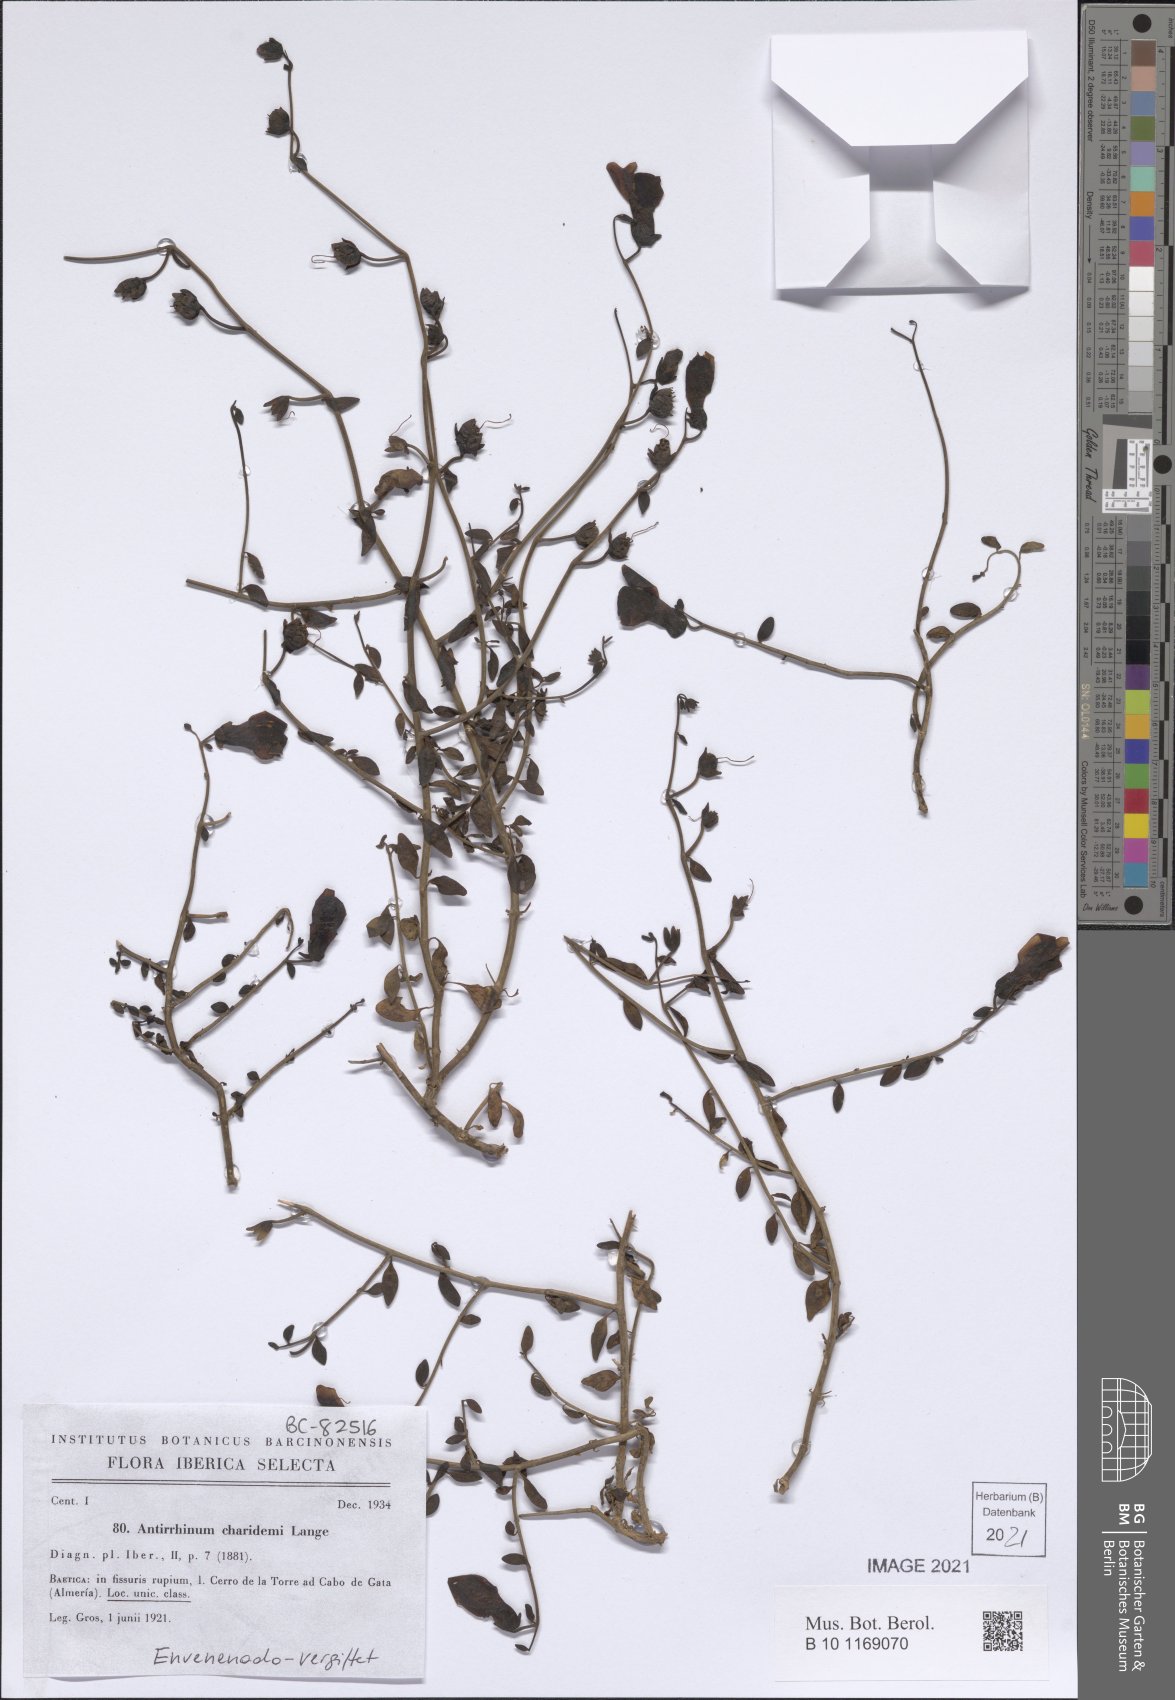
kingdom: Plantae
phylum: Tracheophyta
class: Magnoliopsida
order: Lamiales
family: Plantaginaceae
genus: Antirrhinum
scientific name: Antirrhinum charidemi
